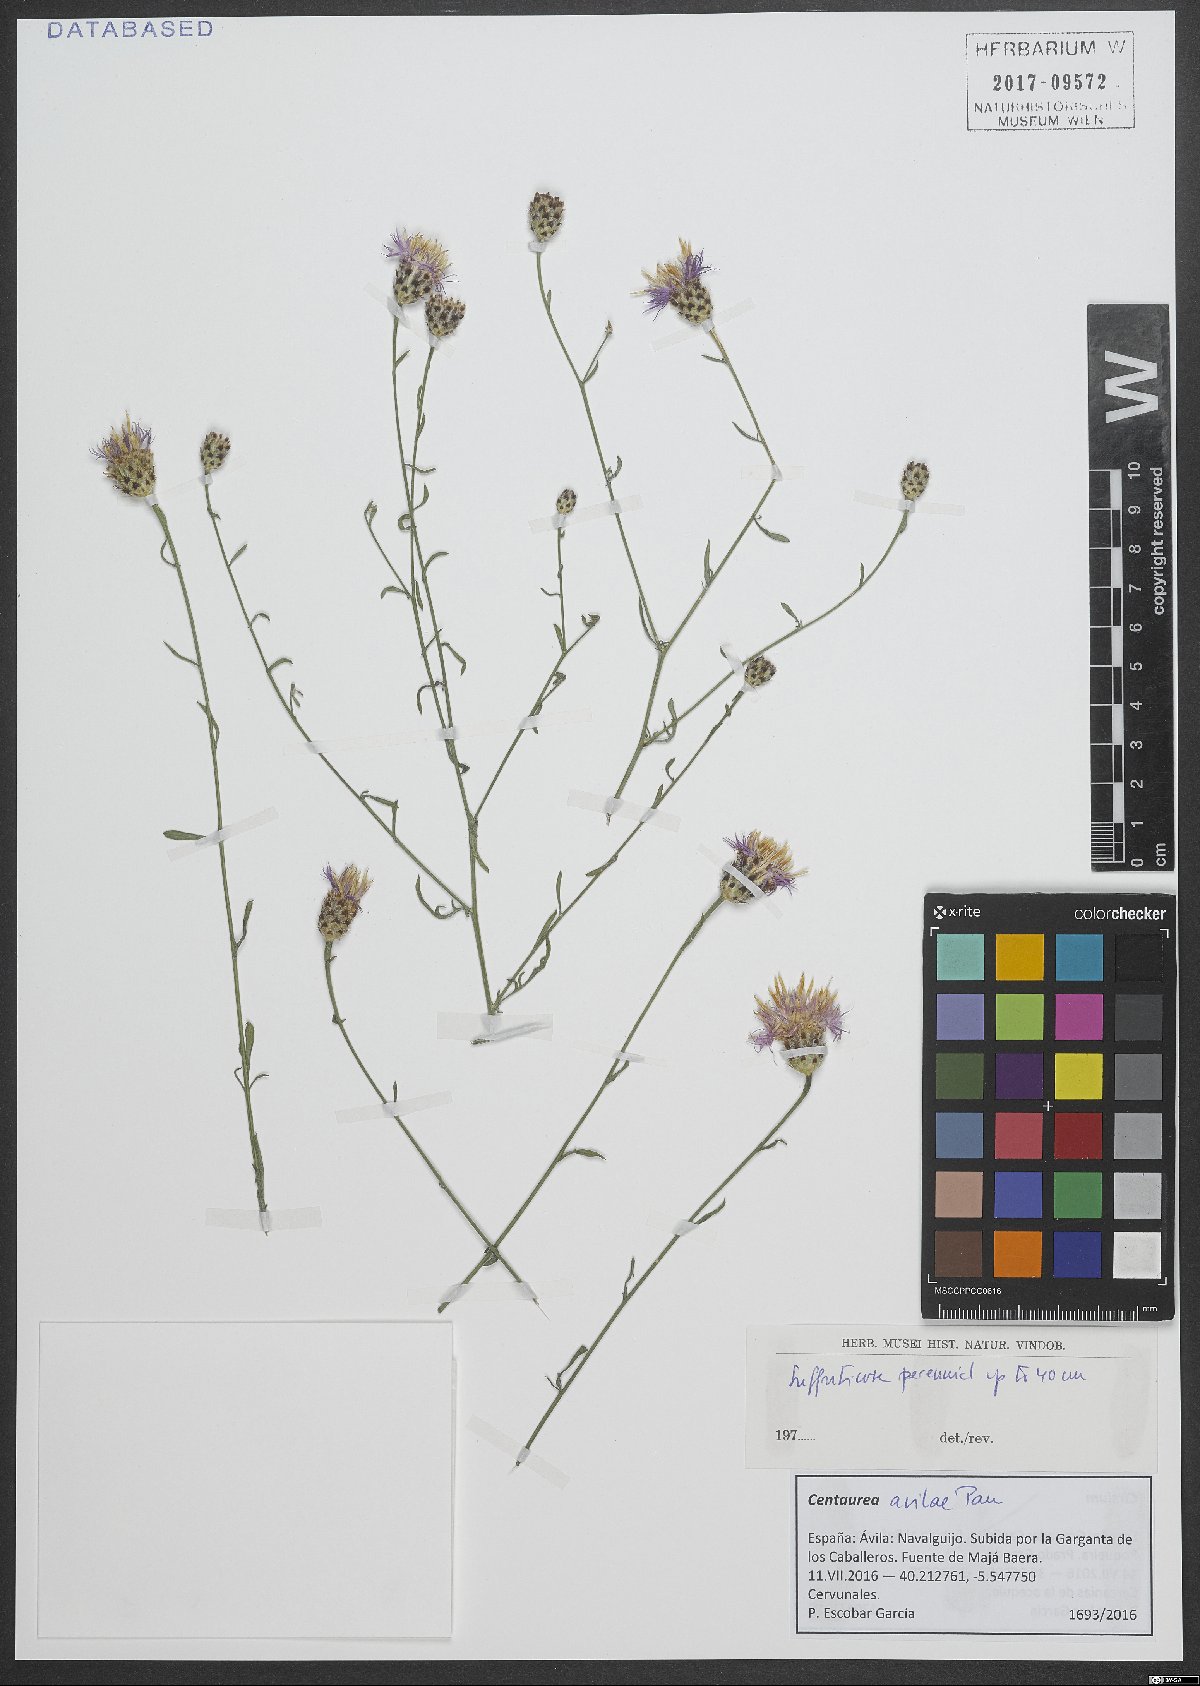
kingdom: Plantae
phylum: Tracheophyta
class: Magnoliopsida
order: Asterales
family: Asteraceae
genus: Centaurea
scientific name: Centaurea avilae
